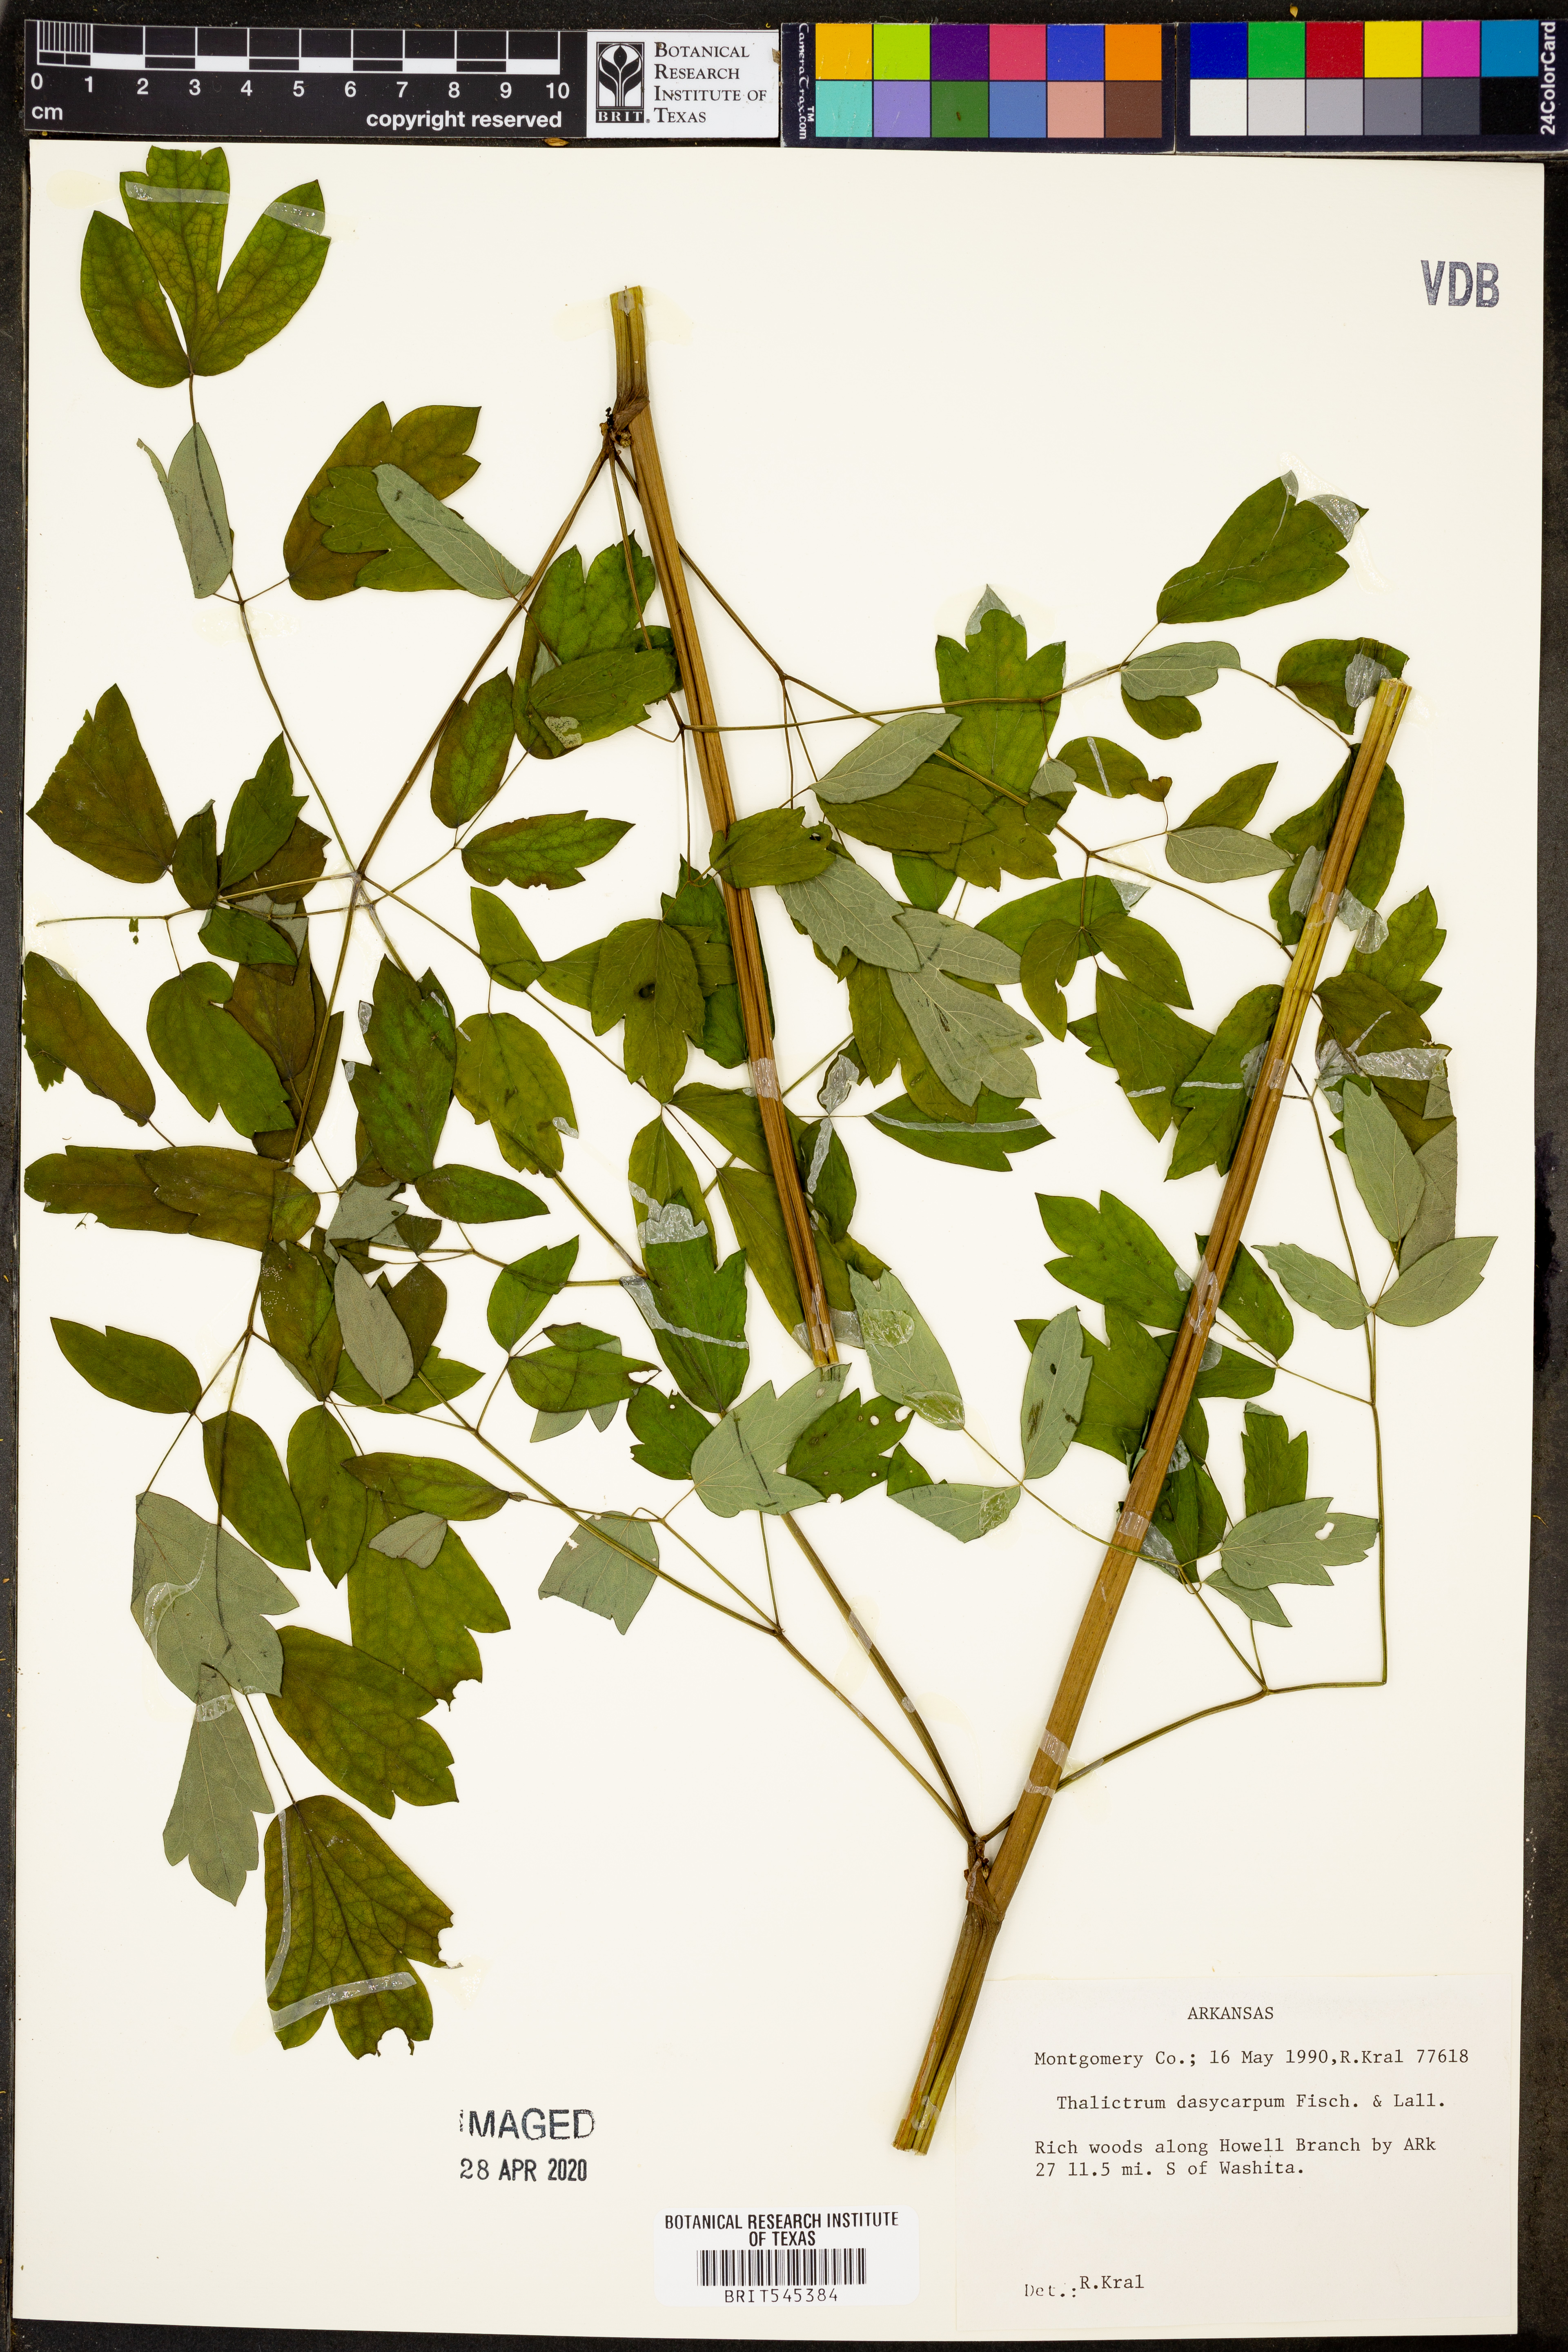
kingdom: Plantae
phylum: Tracheophyta
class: Magnoliopsida
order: Ranunculales
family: Ranunculaceae
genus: Thalictrum
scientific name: Thalictrum dasycarpum
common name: Purple meadow-rue
